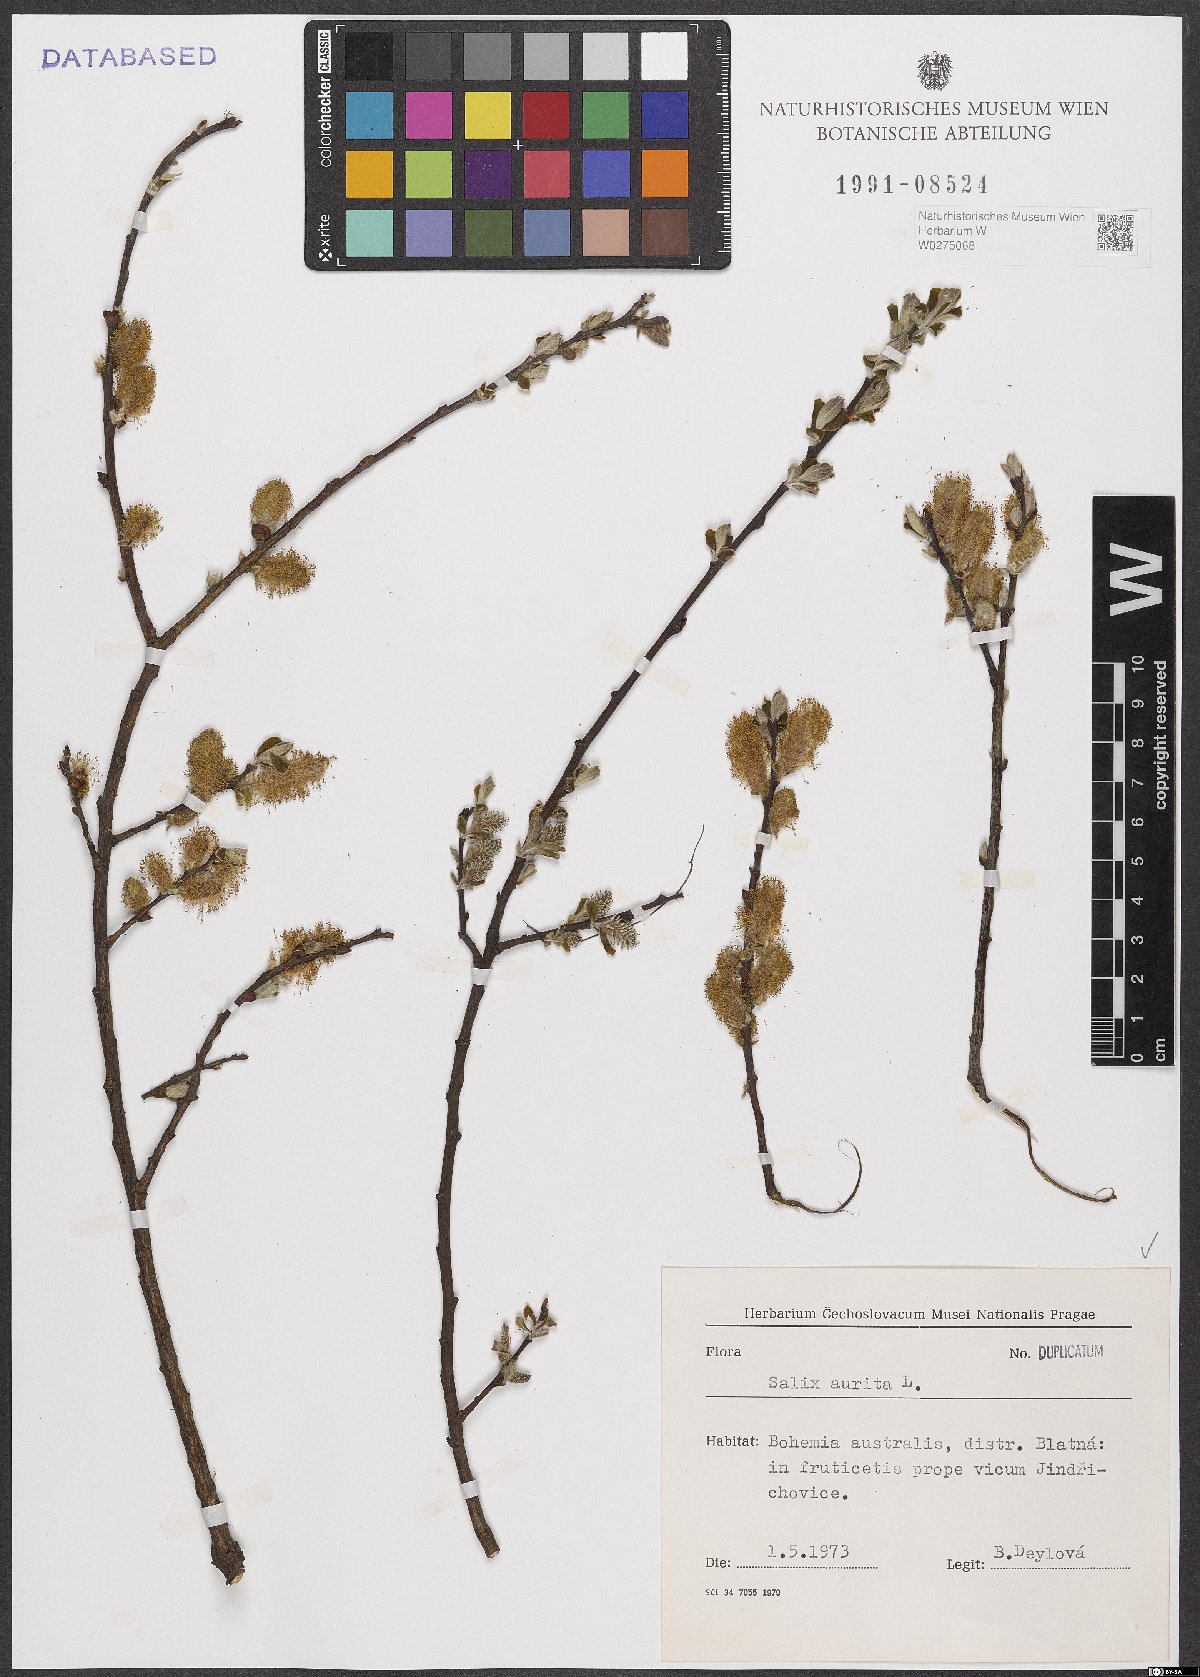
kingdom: Plantae
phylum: Tracheophyta
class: Magnoliopsida
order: Malpighiales
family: Salicaceae
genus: Salix
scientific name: Salix aurita
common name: Eared willow
